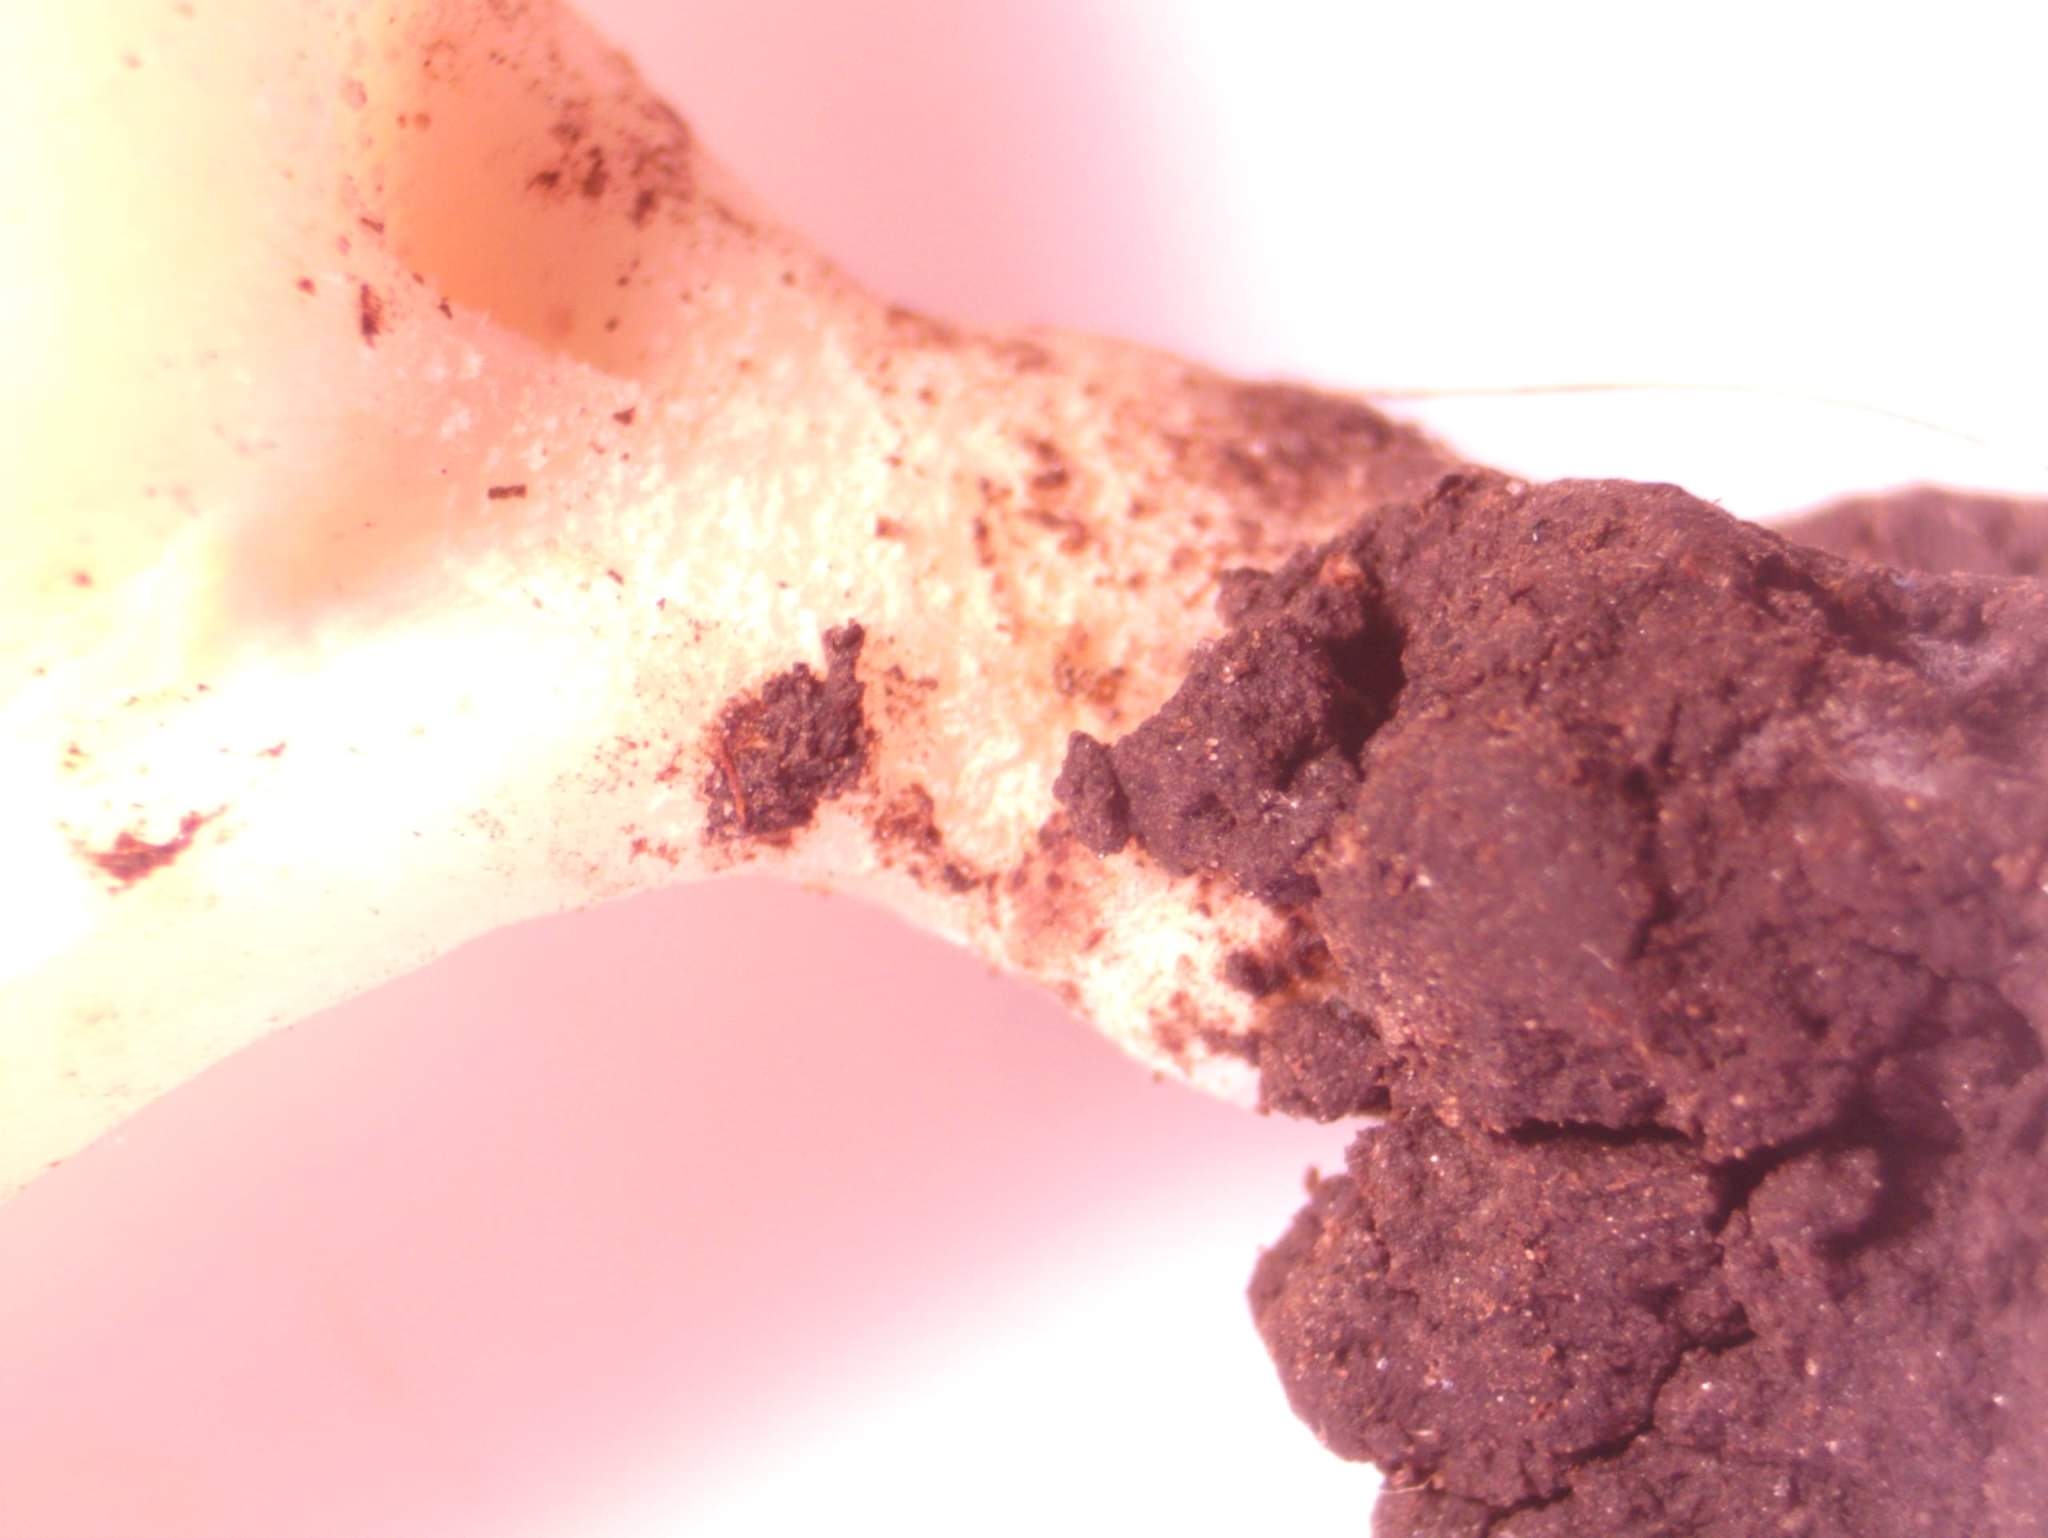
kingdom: Fungi
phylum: Ascomycota
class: Pezizomycetes
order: Pezizales
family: Pezizaceae
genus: Peziza
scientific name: Peziza
